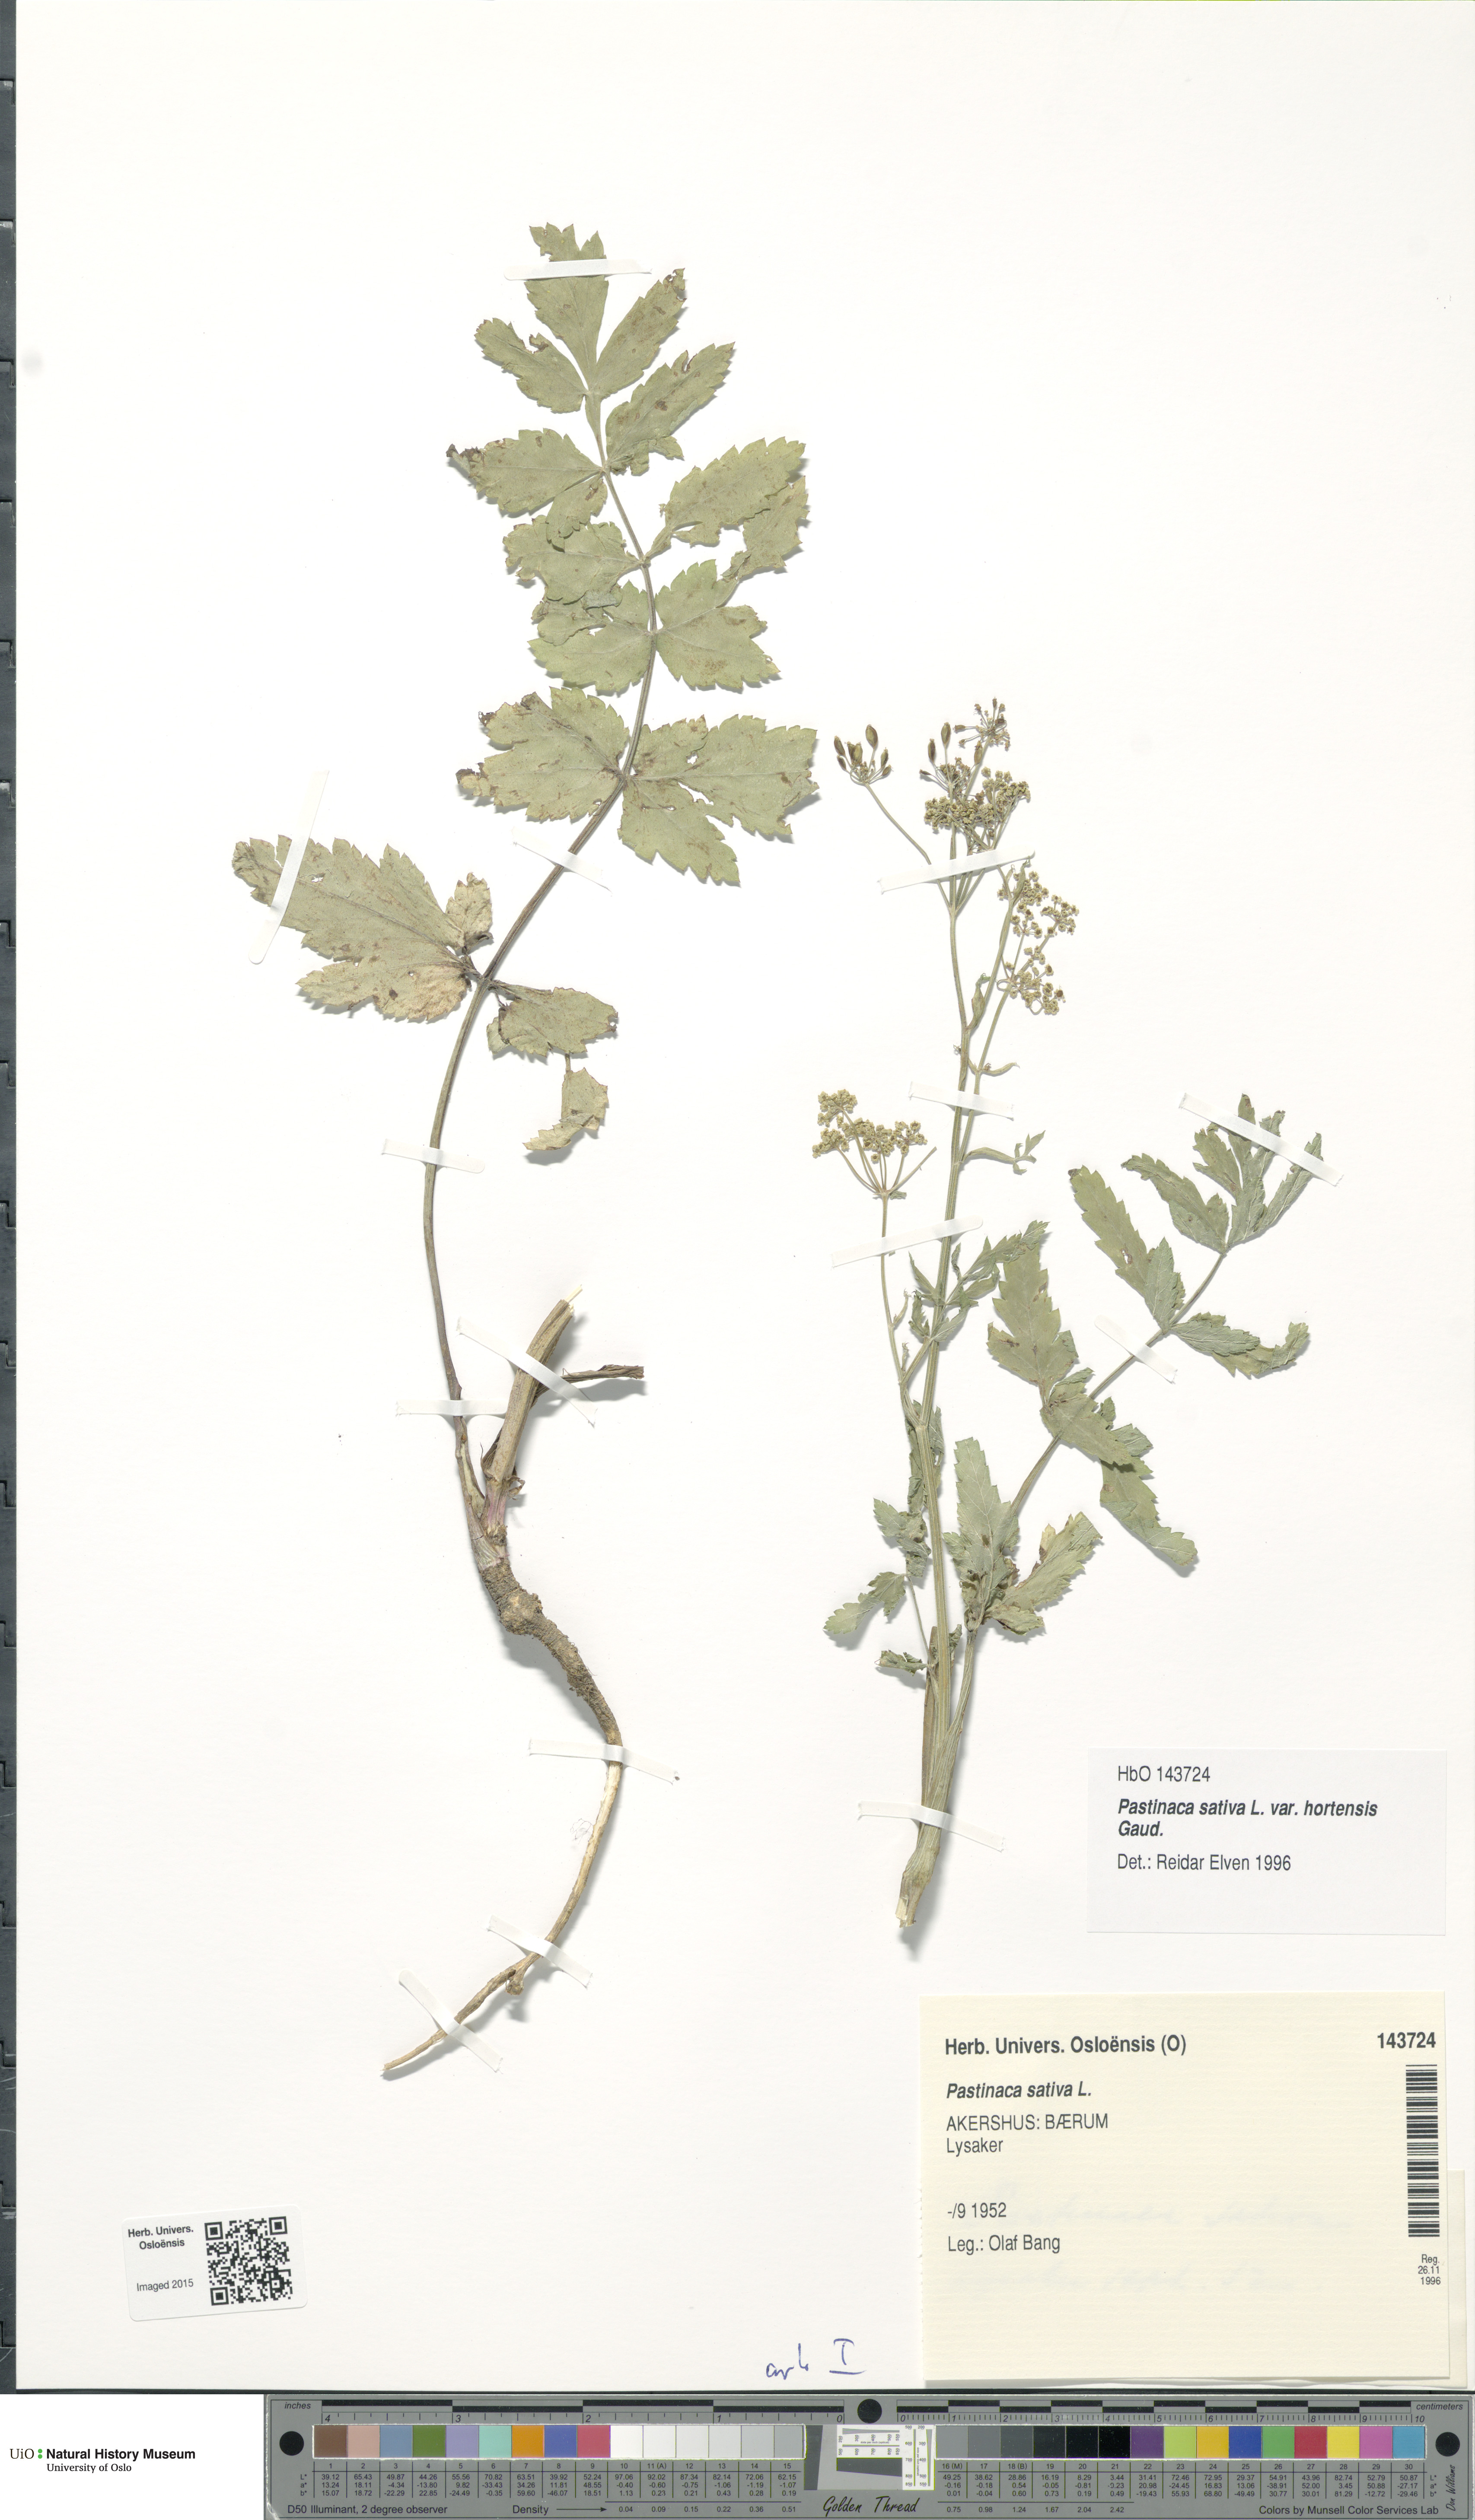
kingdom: Plantae
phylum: Tracheophyta
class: Magnoliopsida
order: Apiales
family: Apiaceae
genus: Pastinaca
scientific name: Pastinaca sativa
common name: Wild parsnip
